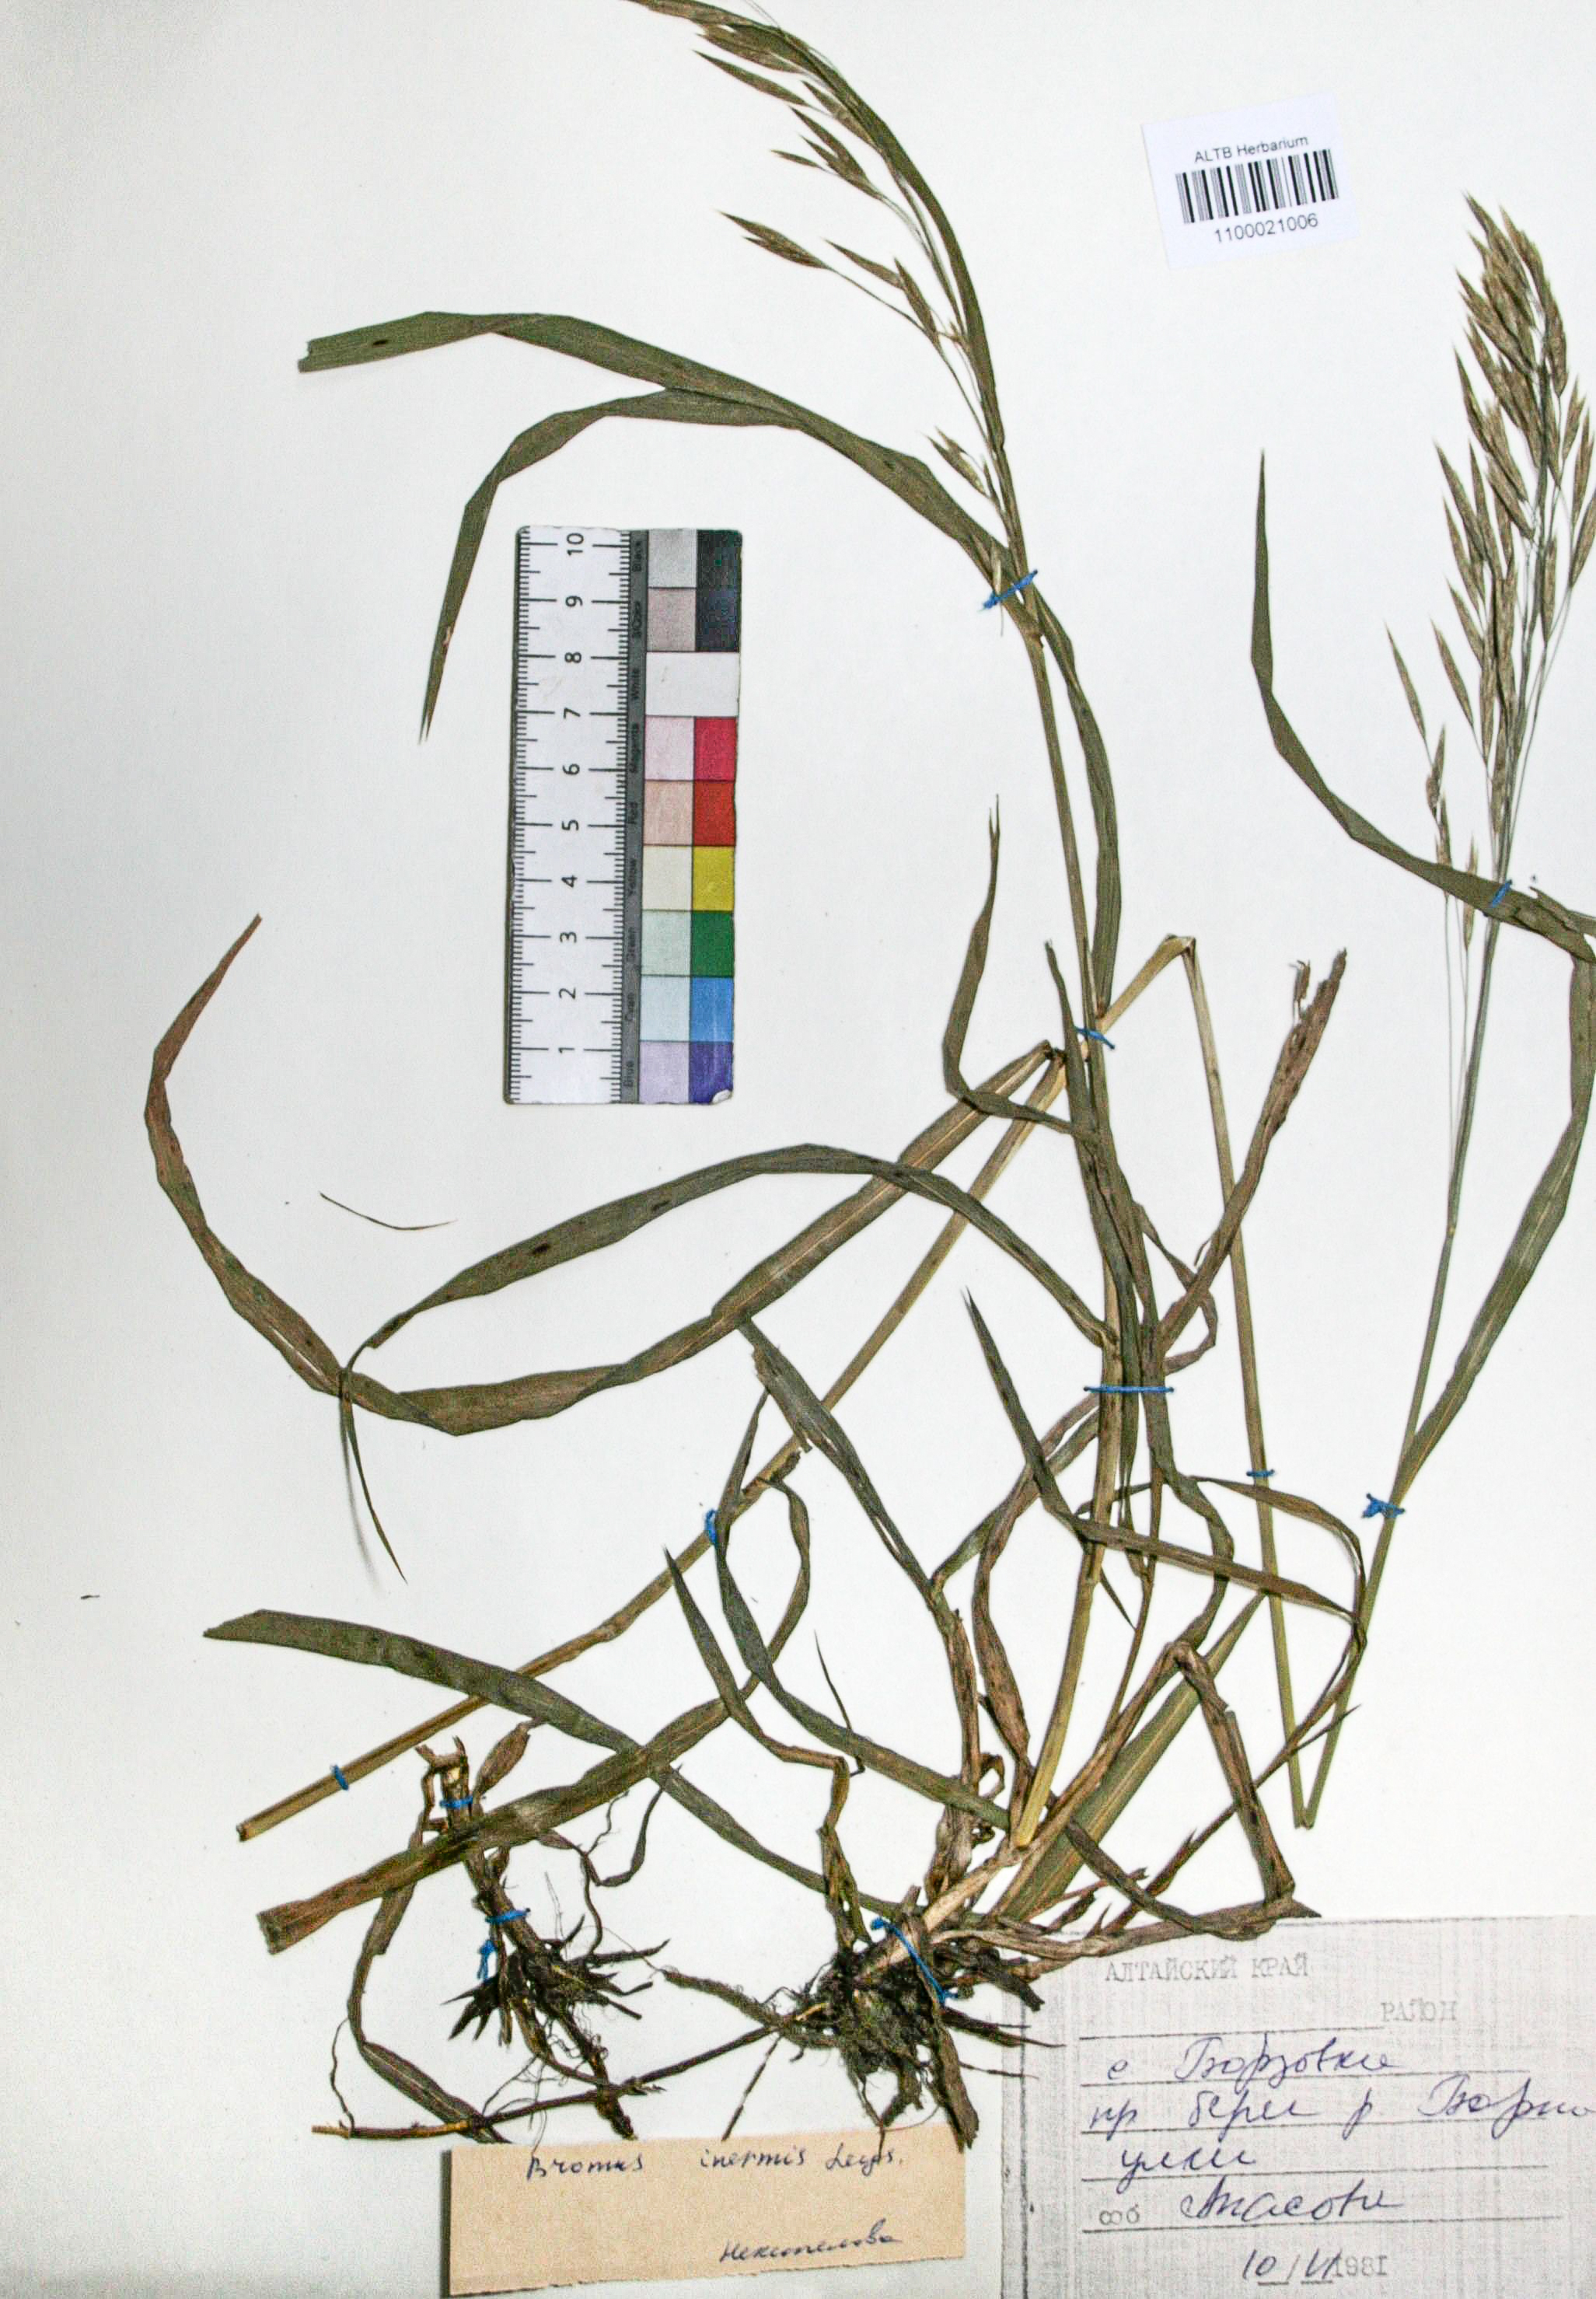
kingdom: Plantae
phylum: Tracheophyta
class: Liliopsida
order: Poales
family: Poaceae
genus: Bromus
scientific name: Bromus inermis
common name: Smooth brome
